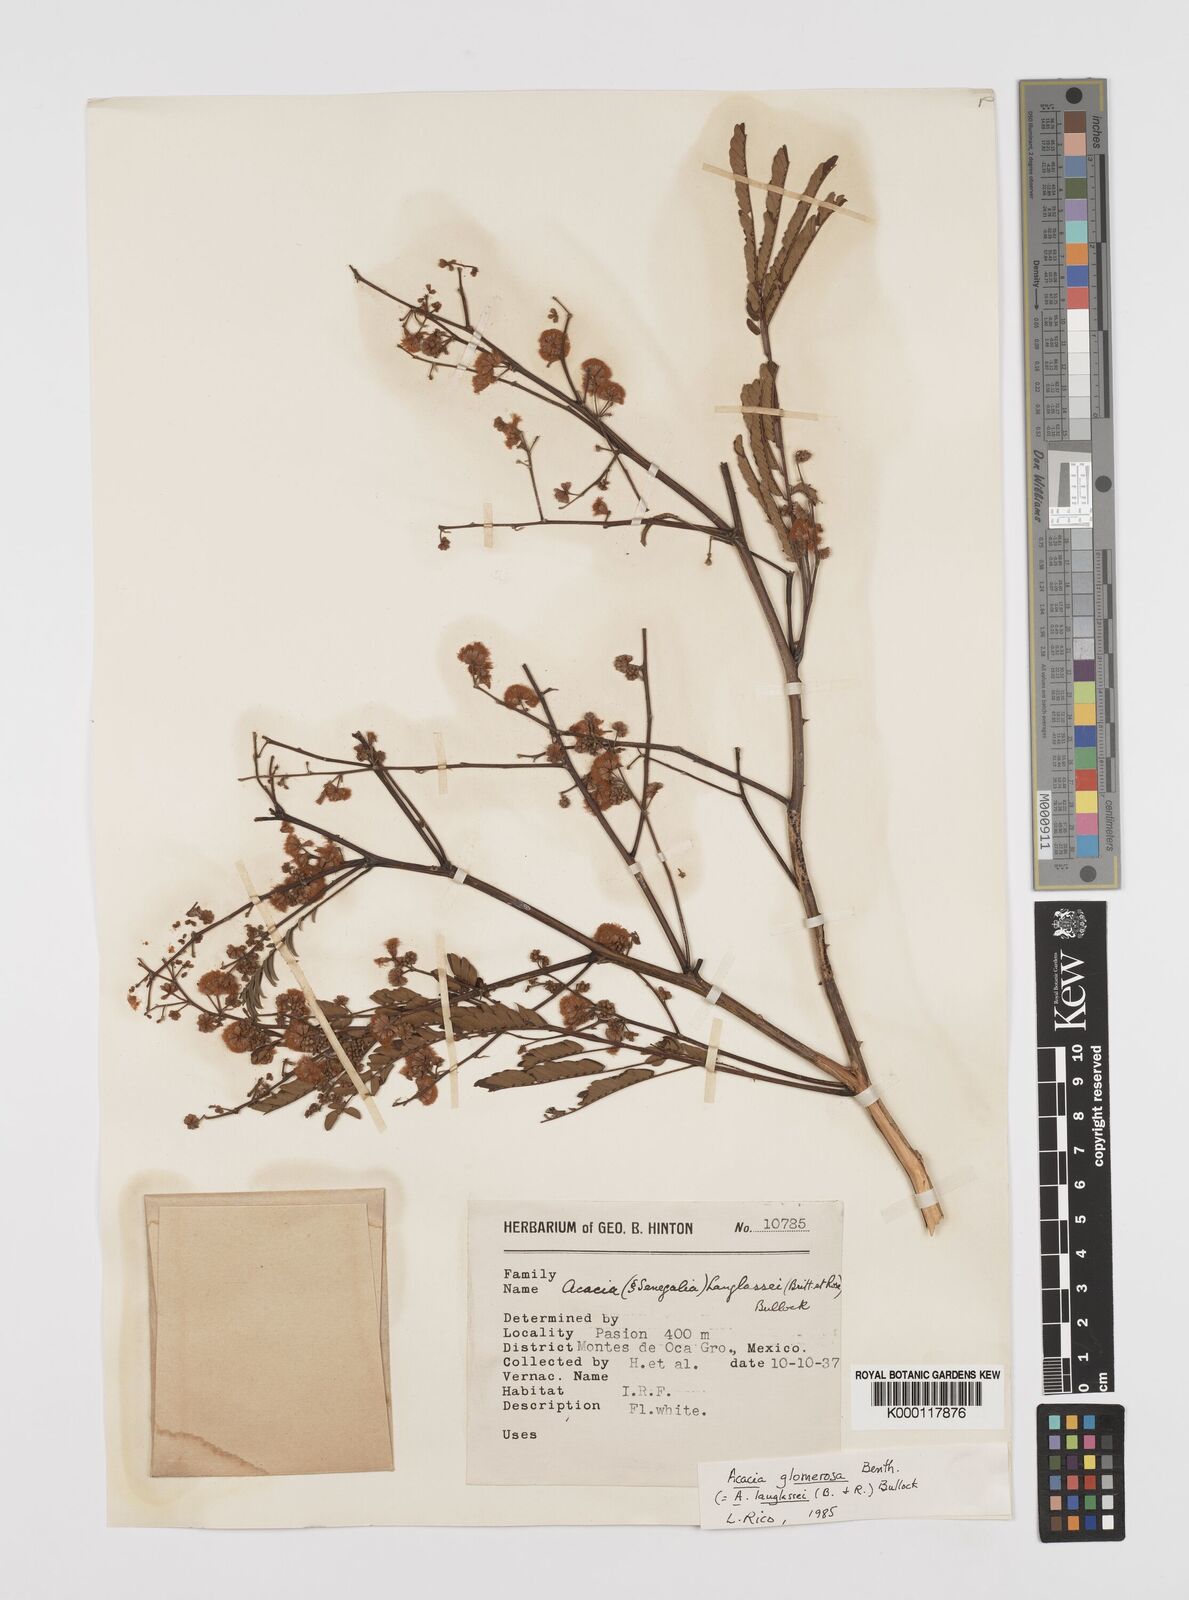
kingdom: Plantae
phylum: Tracheophyta
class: Magnoliopsida
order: Fabales
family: Fabaceae
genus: Senegalia
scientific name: Senegalia polyphylla
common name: White-tamarind
